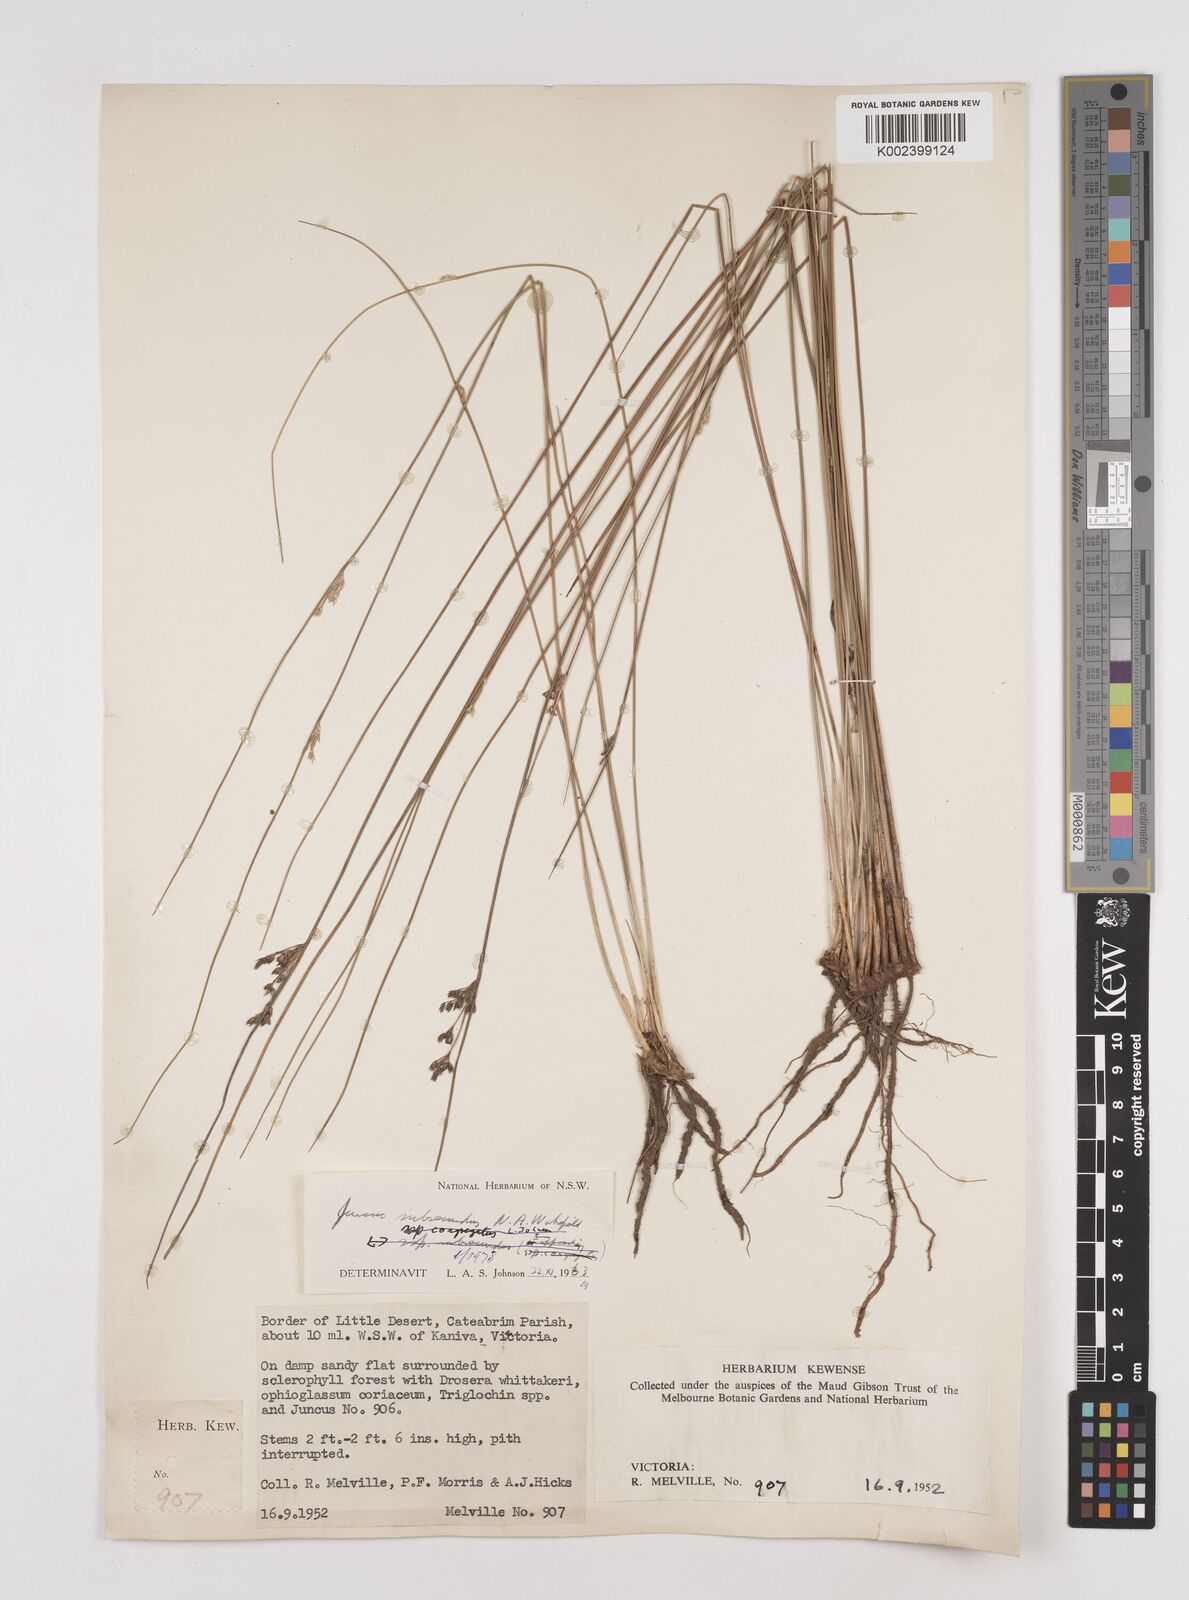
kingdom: Plantae
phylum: Tracheophyta
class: Liliopsida
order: Poales
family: Juncaceae
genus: Juncus
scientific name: Juncus subsecundus
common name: Fingered rush
